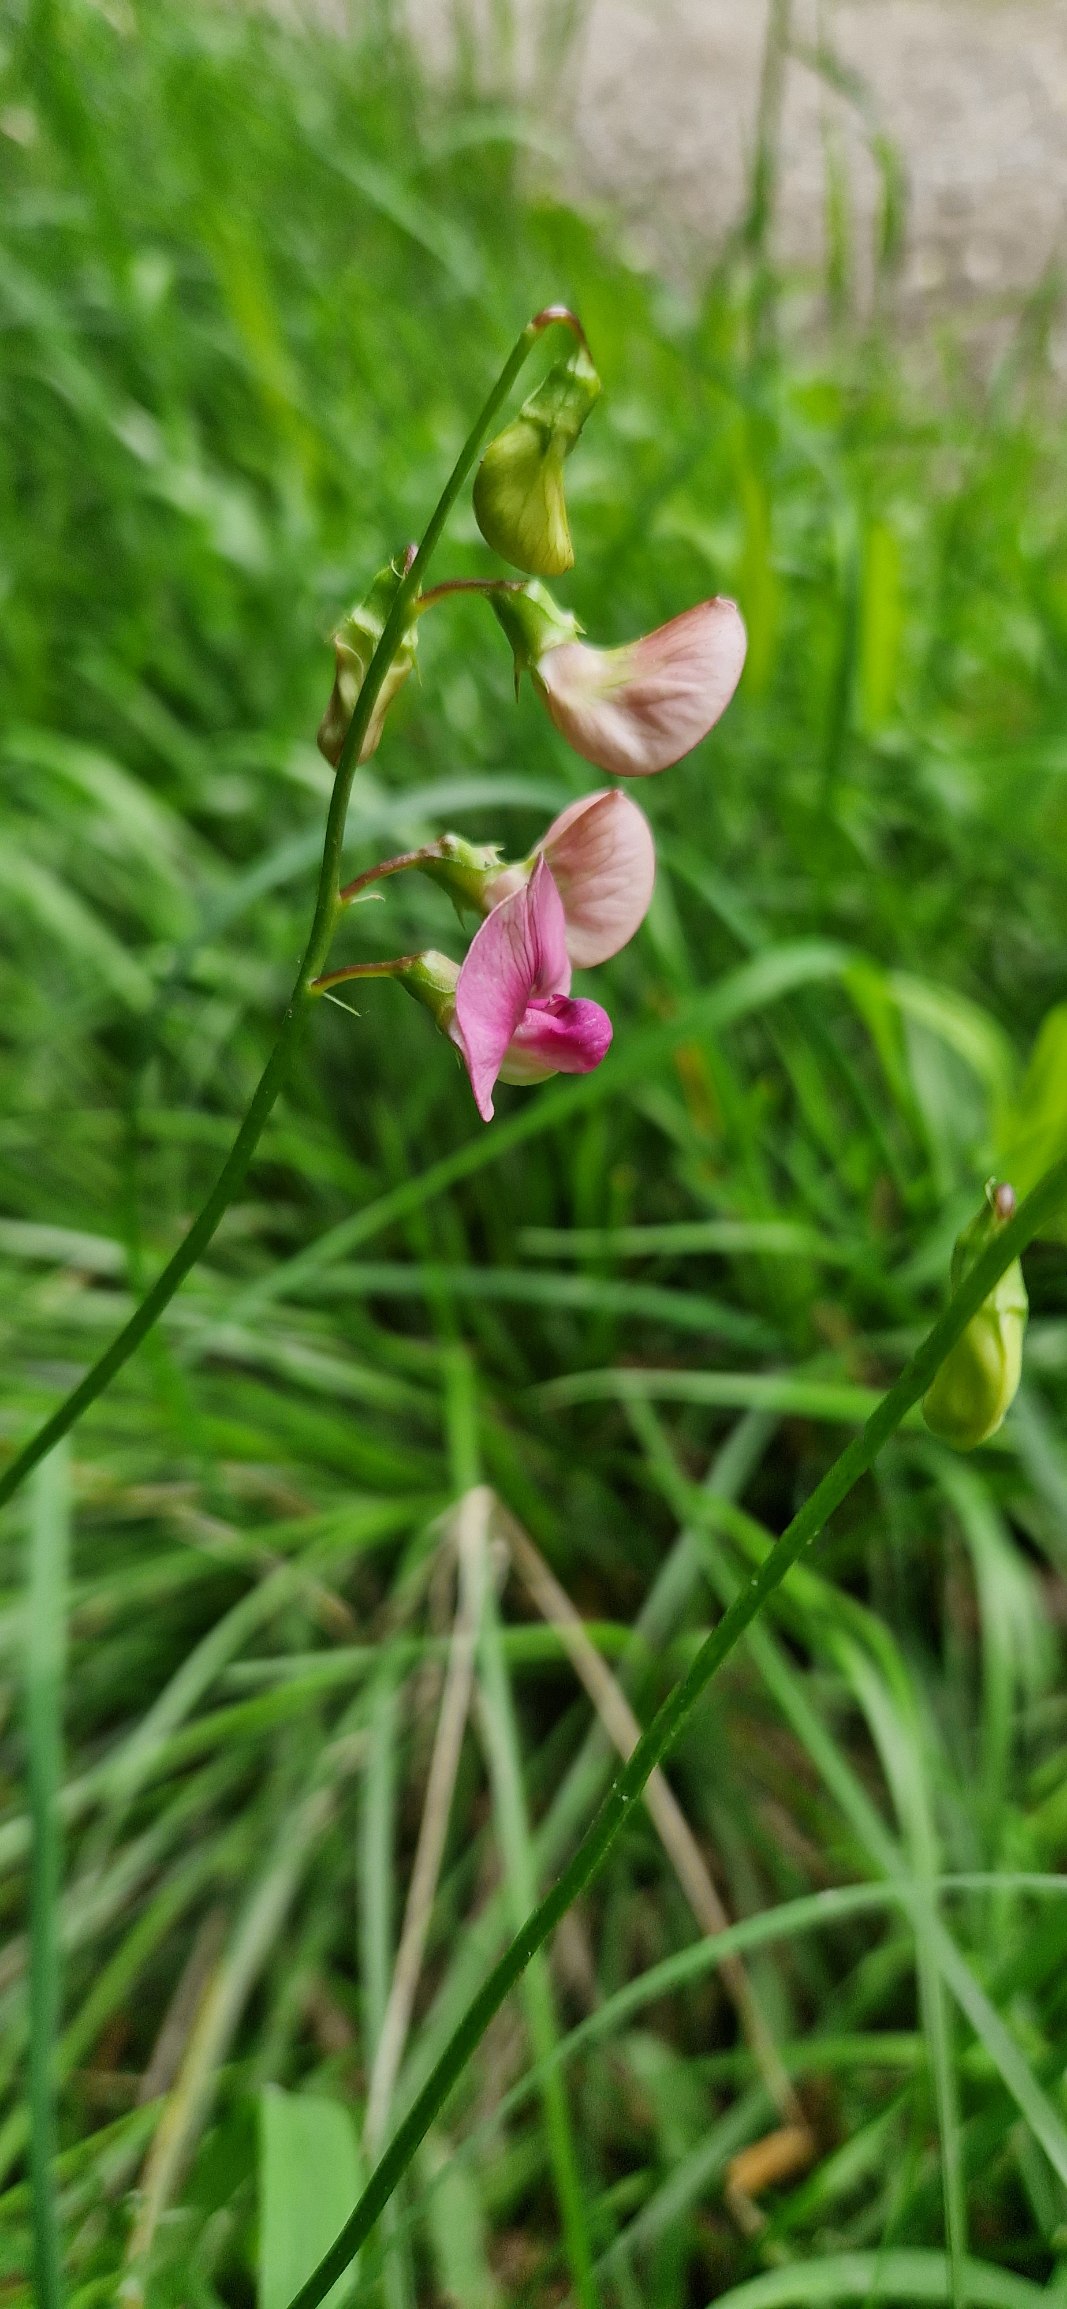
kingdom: Plantae
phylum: Tracheophyta
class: Magnoliopsida
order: Fabales
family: Fabaceae
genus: Lathyrus
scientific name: Lathyrus sylvestris
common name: Skov-fladbælg
